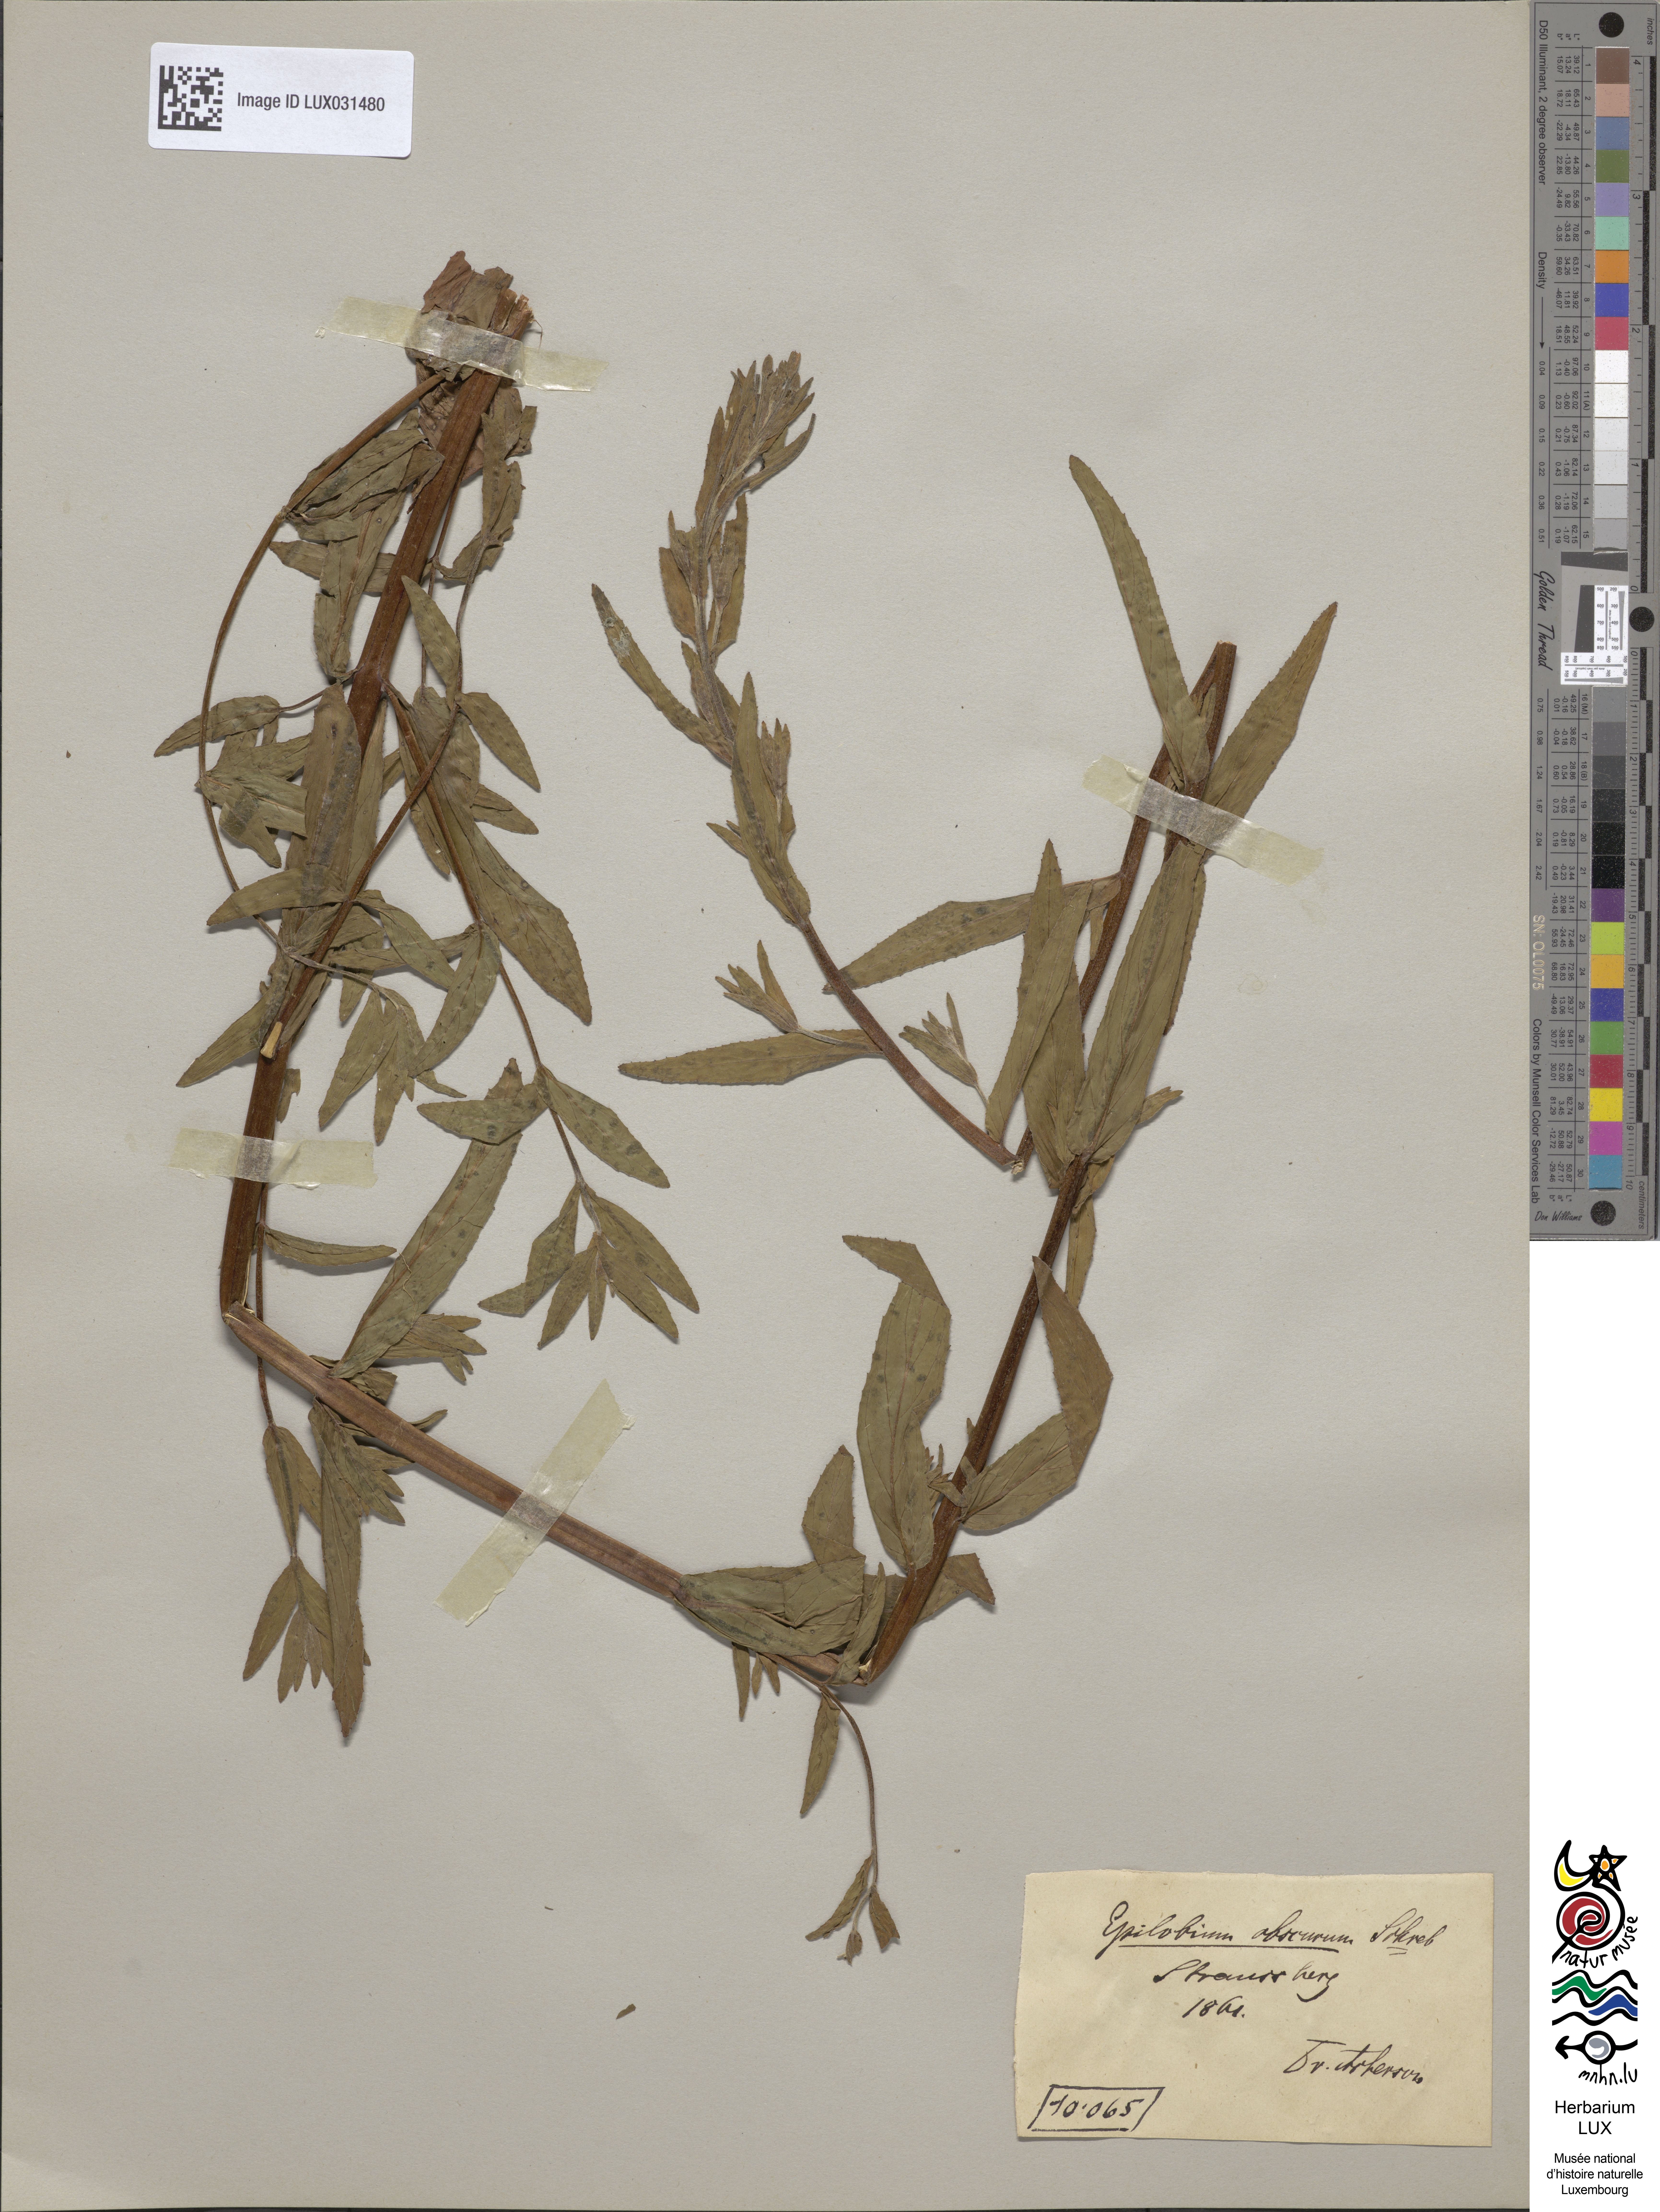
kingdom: Plantae
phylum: Tracheophyta
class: Magnoliopsida
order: Myrtales
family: Onagraceae
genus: Epilobium
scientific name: Epilobium obscurum
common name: Short-fruited willowherb
